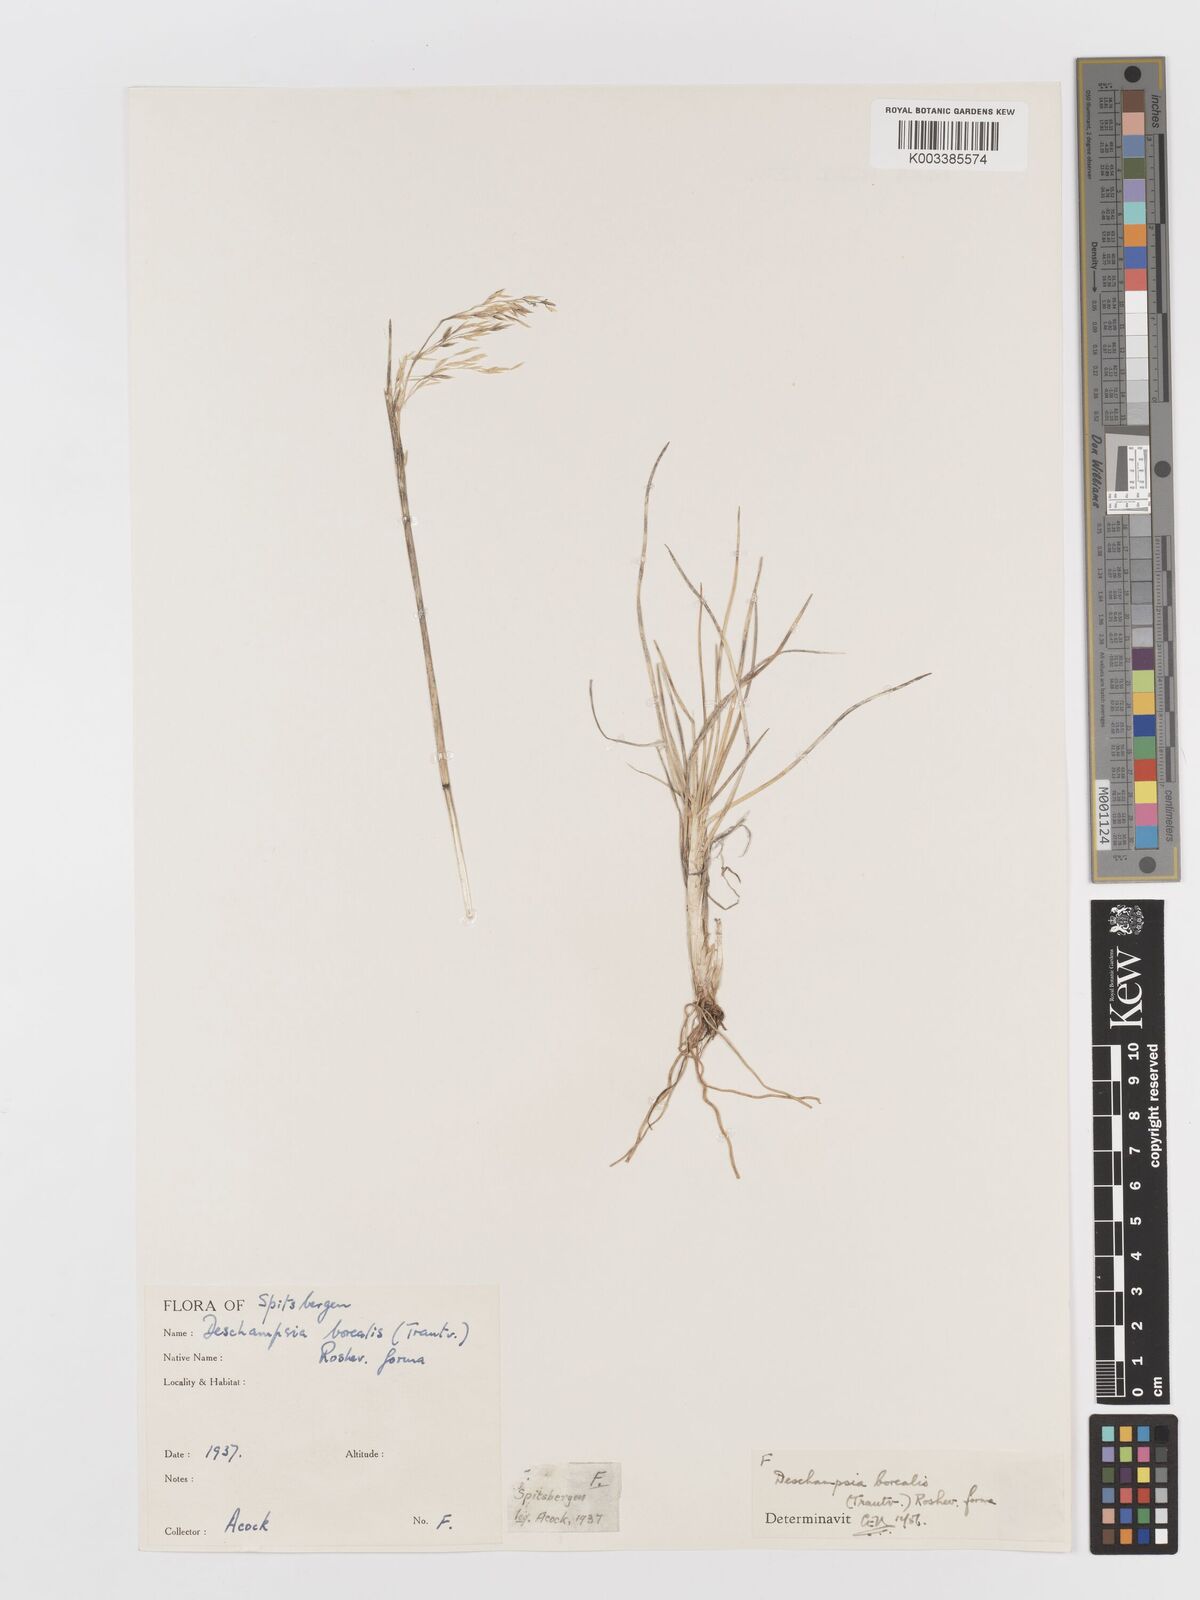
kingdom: Plantae
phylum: Tracheophyta
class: Liliopsida
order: Poales
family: Poaceae
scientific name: Poaceae
